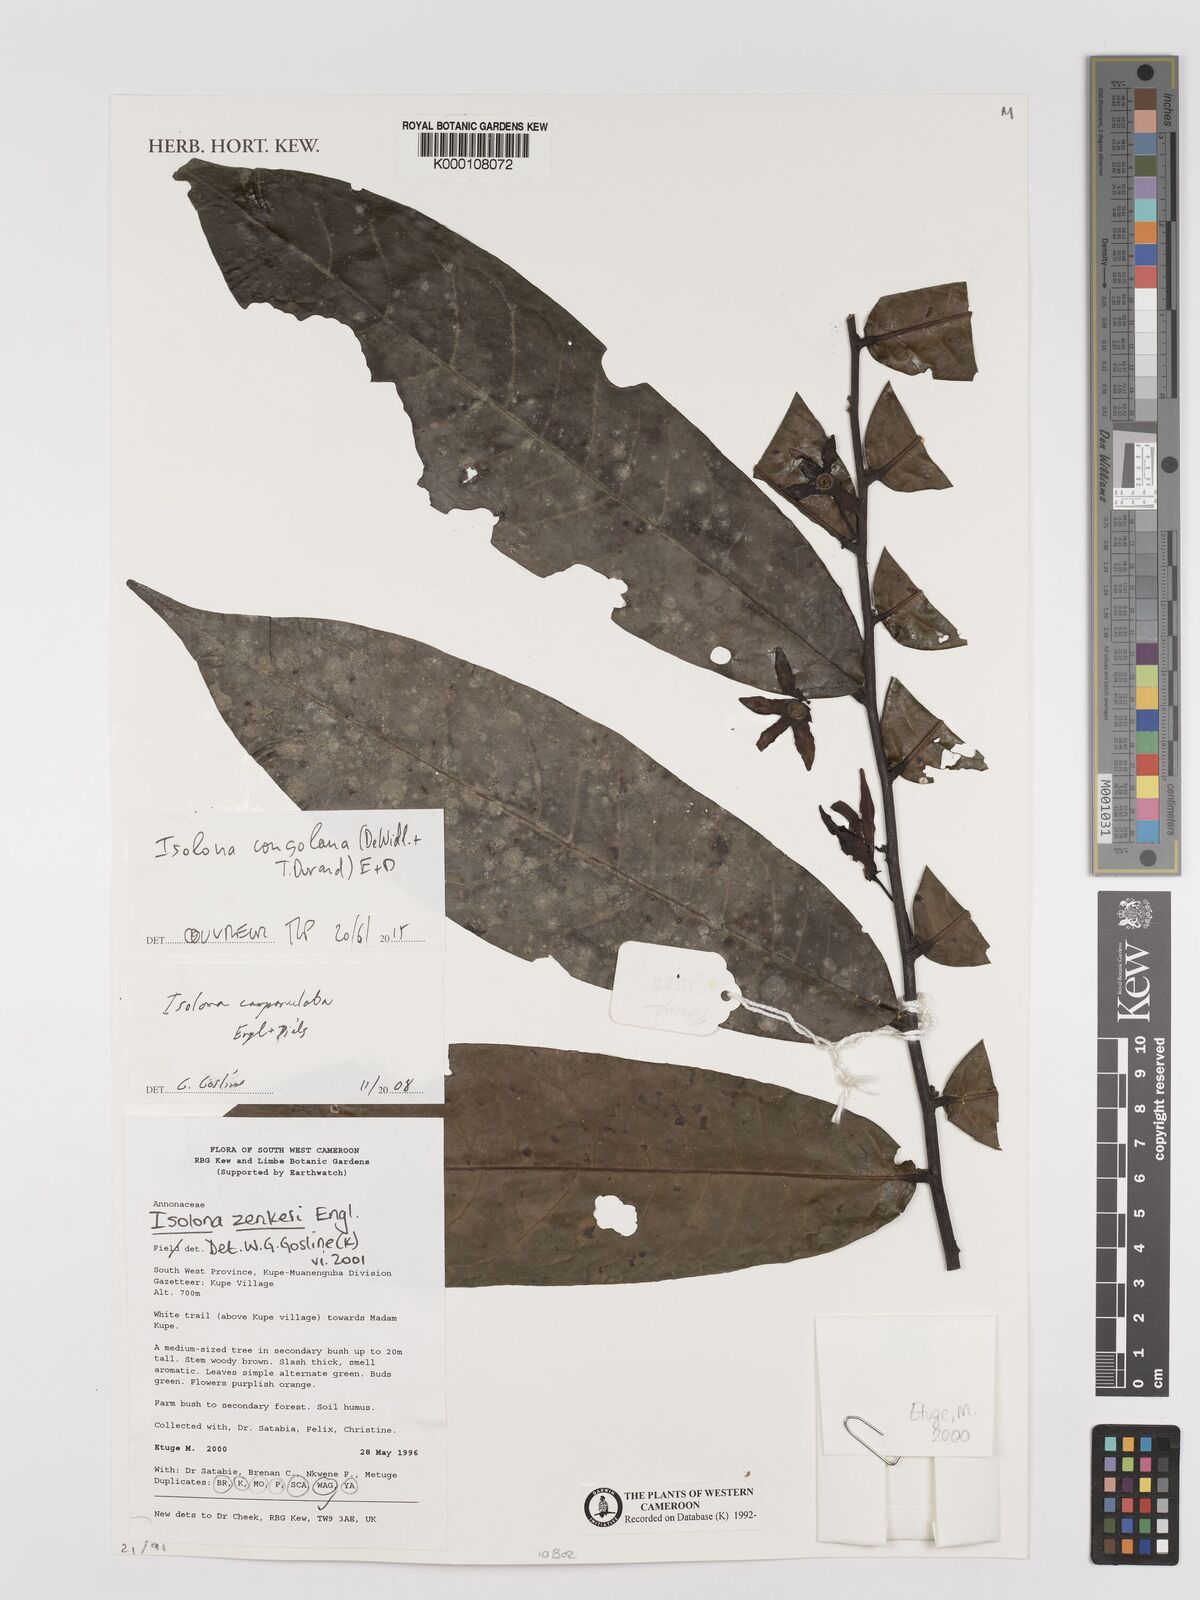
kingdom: Plantae
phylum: Tracheophyta
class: Magnoliopsida
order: Magnoliales
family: Annonaceae
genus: Isolona
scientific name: Isolona campanulata
